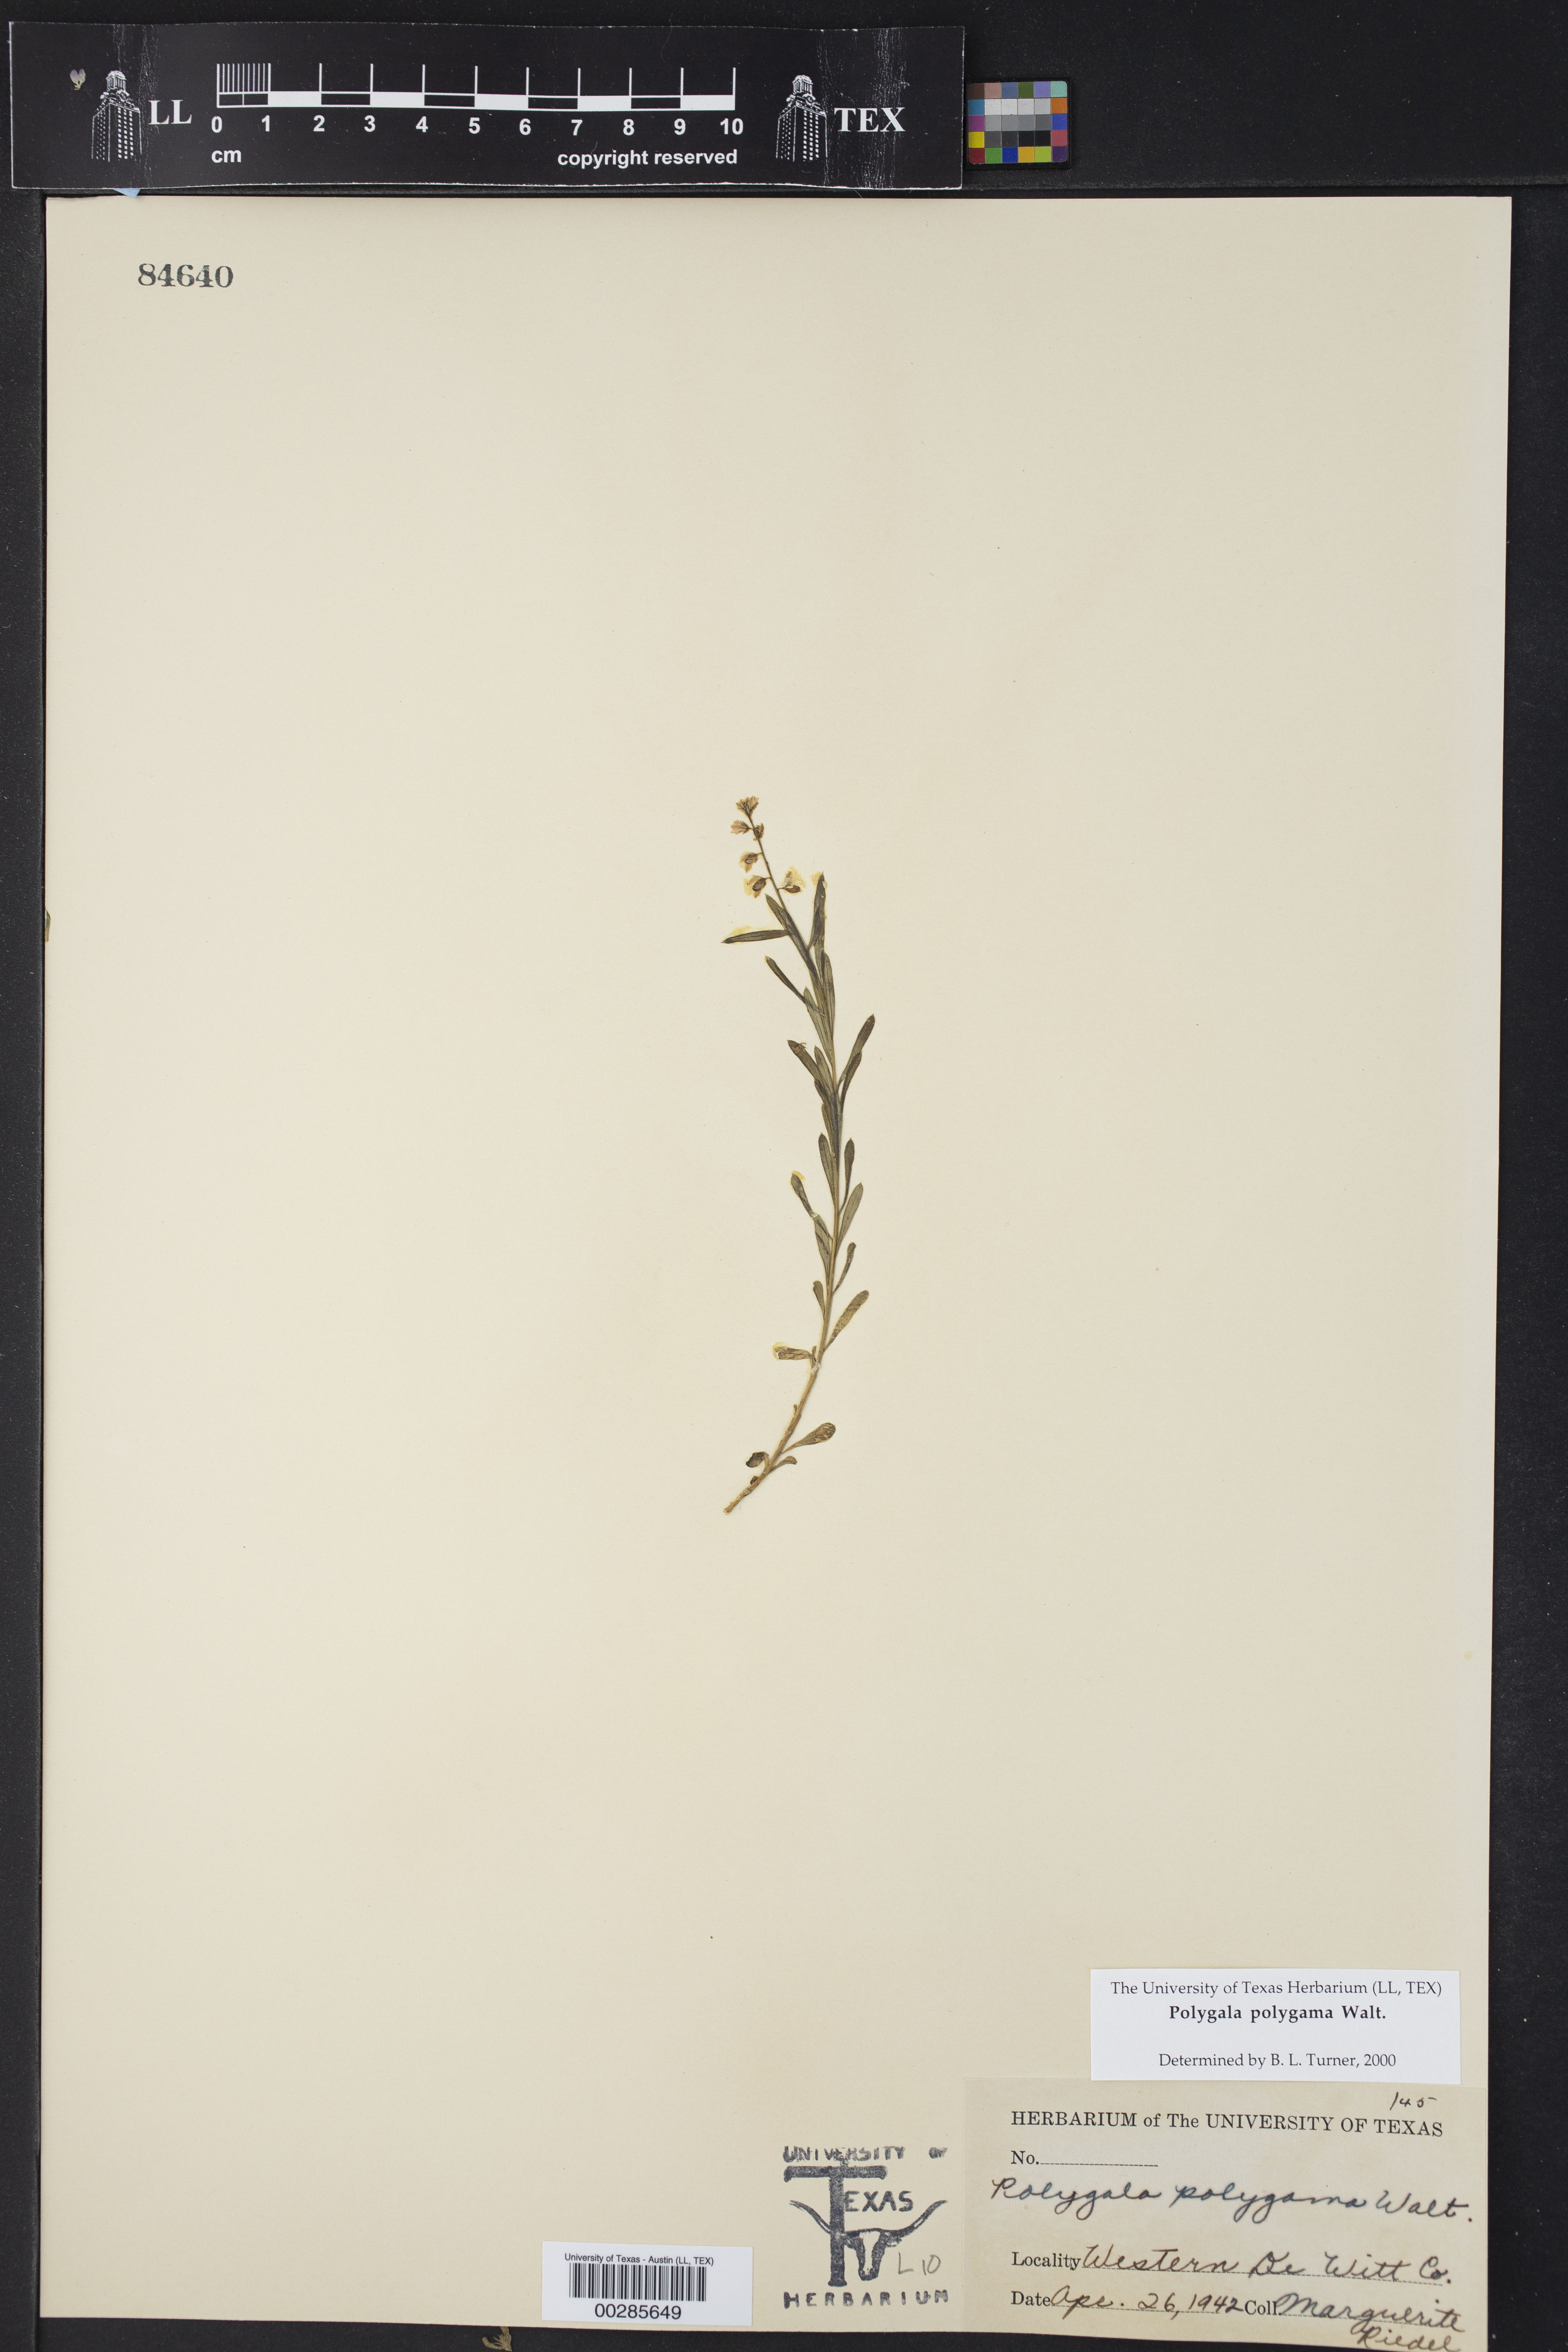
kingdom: Plantae
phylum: Tracheophyta
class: Magnoliopsida
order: Fabales
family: Polygalaceae
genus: Polygala
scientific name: Polygala polygama
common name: Bitter milkwort
